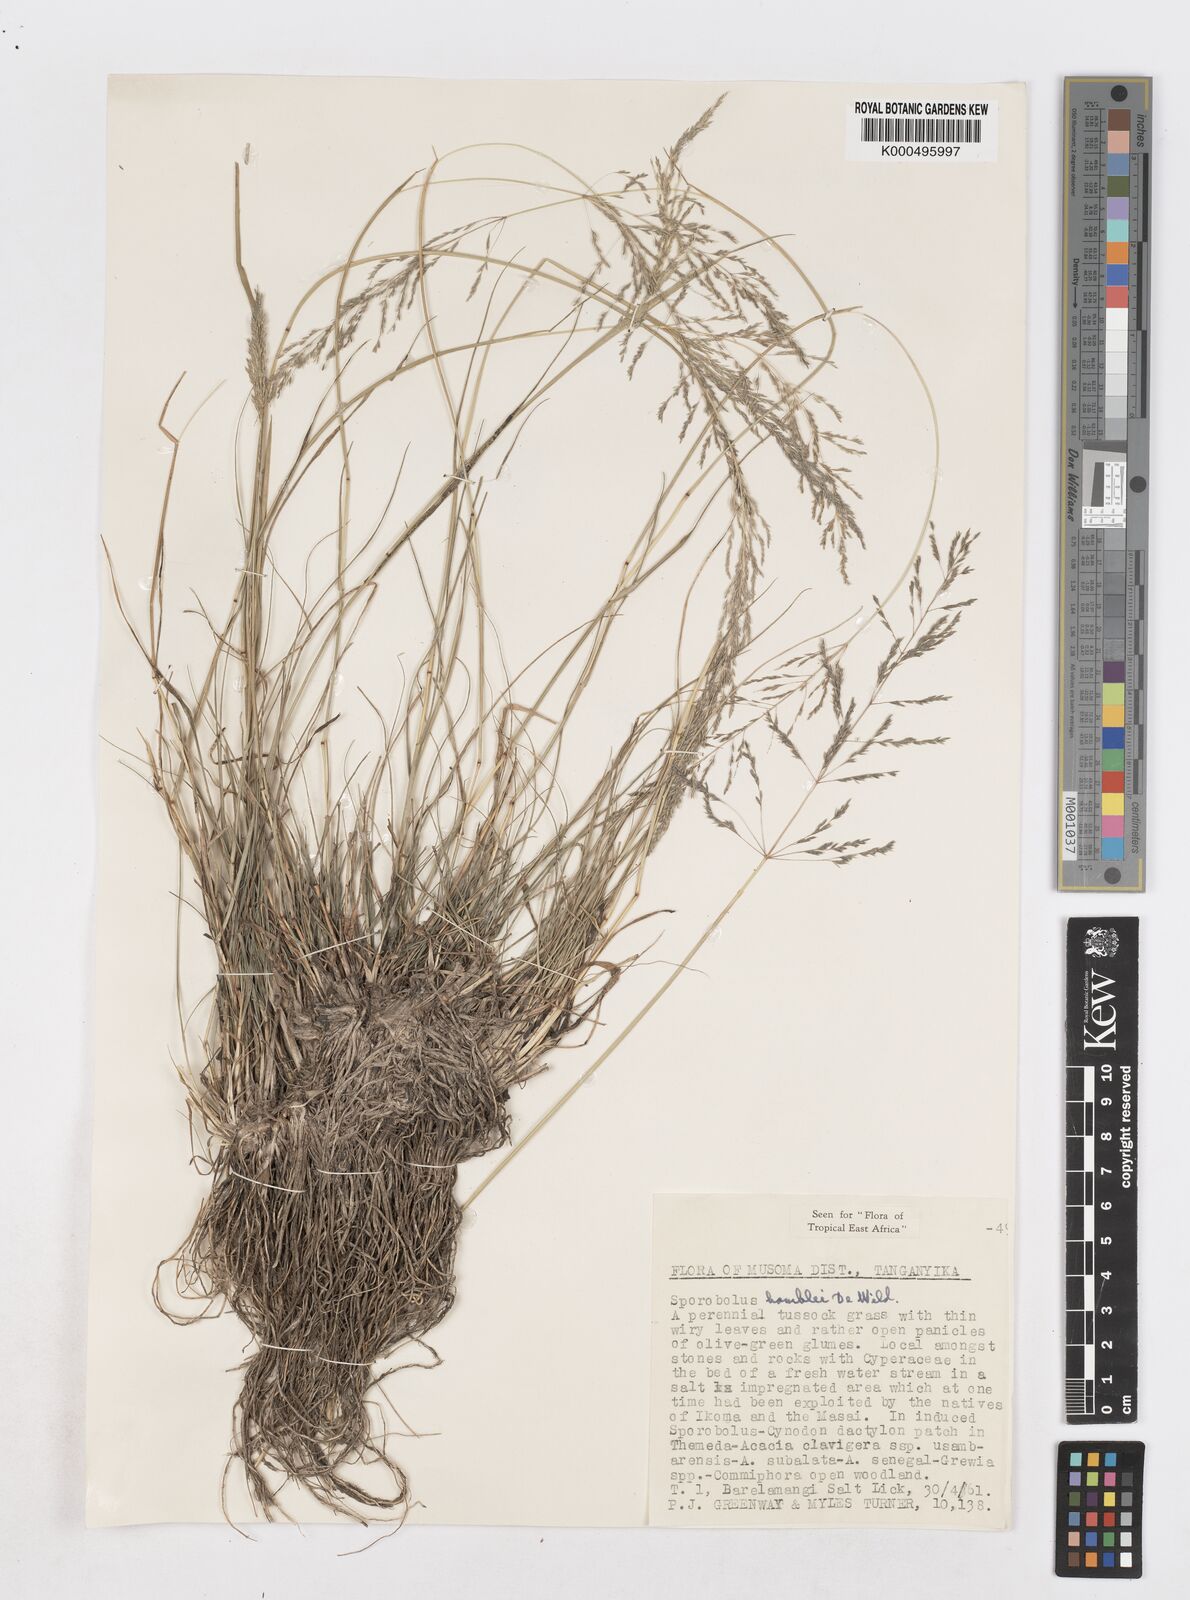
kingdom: Plantae
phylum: Tracheophyta
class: Liliopsida
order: Poales
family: Poaceae
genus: Sporobolus
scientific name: Sporobolus ioclados
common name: Pan dropseed
